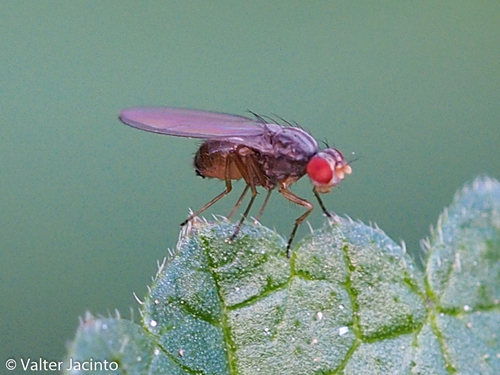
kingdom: Animalia
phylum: Arthropoda
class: Insecta
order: Diptera
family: Drosophilidae
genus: Scaptomyza
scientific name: Scaptomyza pallida
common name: Pomace fly
